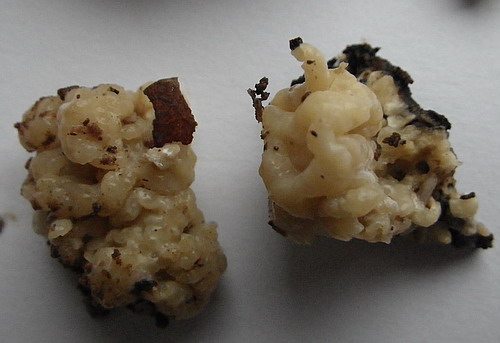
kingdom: Fungi
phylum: Ascomycota
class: Sordariomycetes
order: Xylariales
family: Hypoxylaceae
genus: Nodulisporium
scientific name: Nodulisporium cecidiogenes
